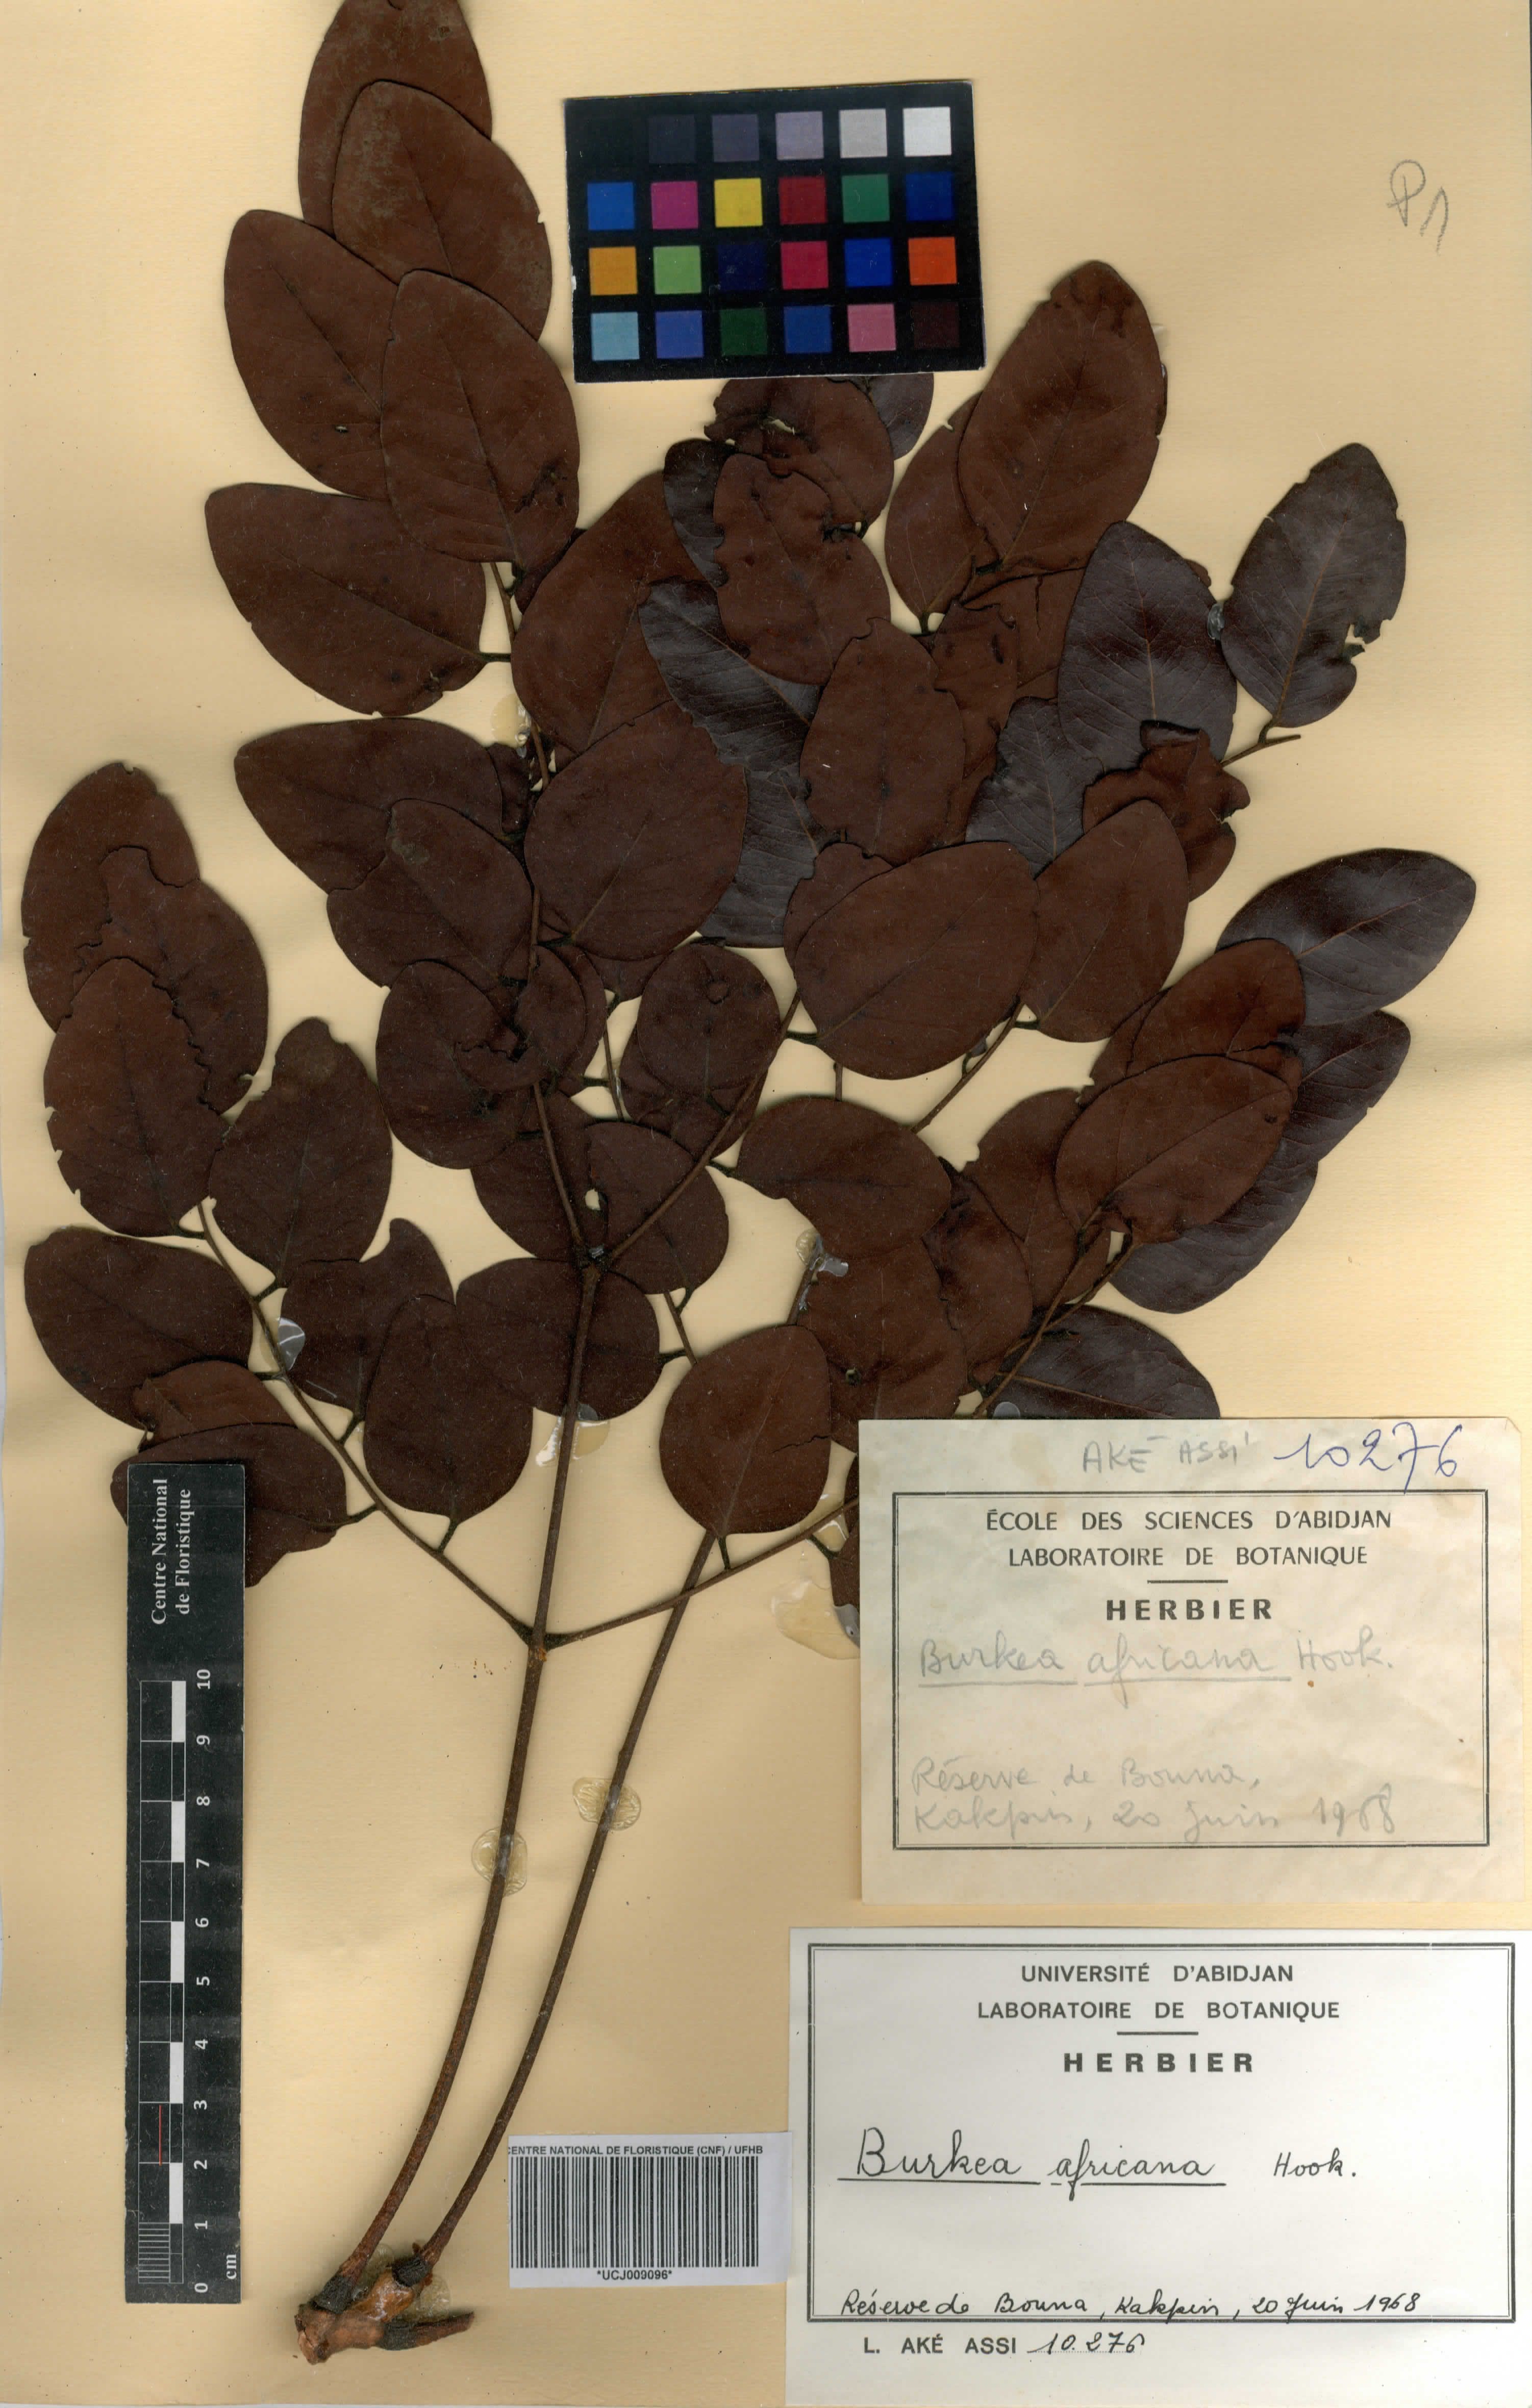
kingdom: Plantae
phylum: Tracheophyta
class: Magnoliopsida
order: Fabales
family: Fabaceae
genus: Burkea
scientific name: Burkea africana
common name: Mkalati tree
